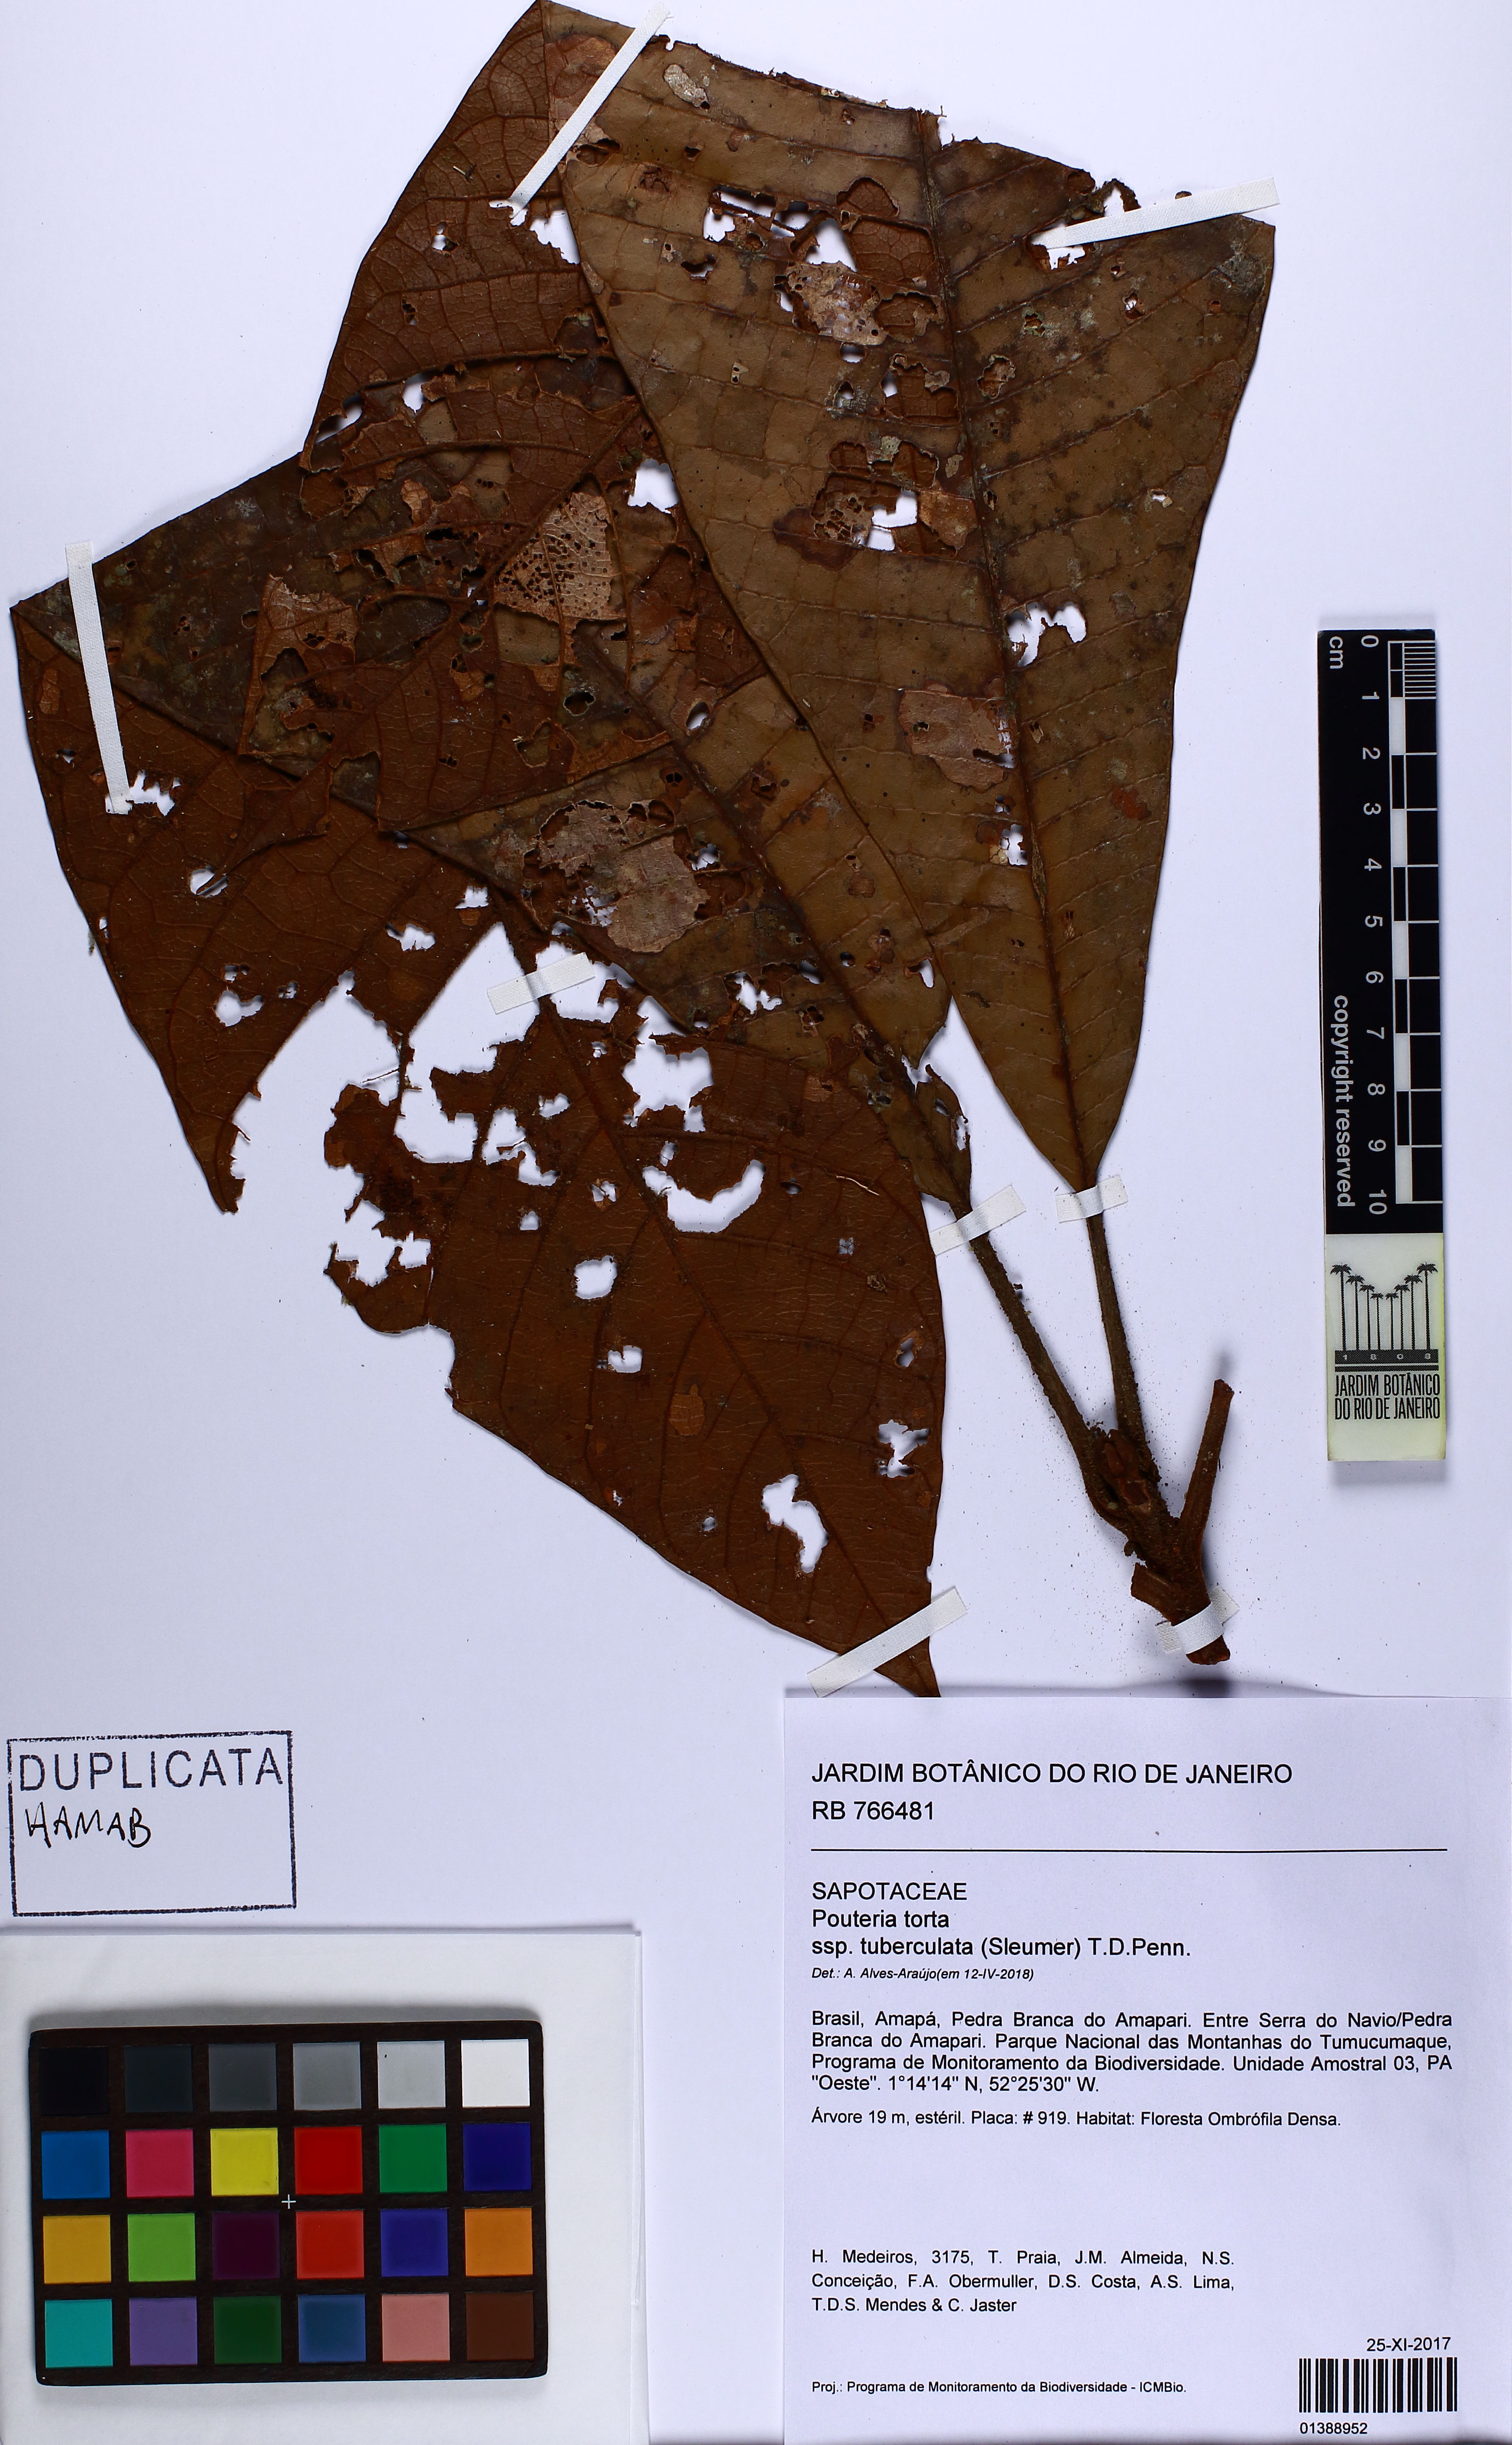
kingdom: Plantae
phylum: Tracheophyta
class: Magnoliopsida
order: Ericales
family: Sapotaceae
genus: Pouteria
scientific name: Pouteria torta
